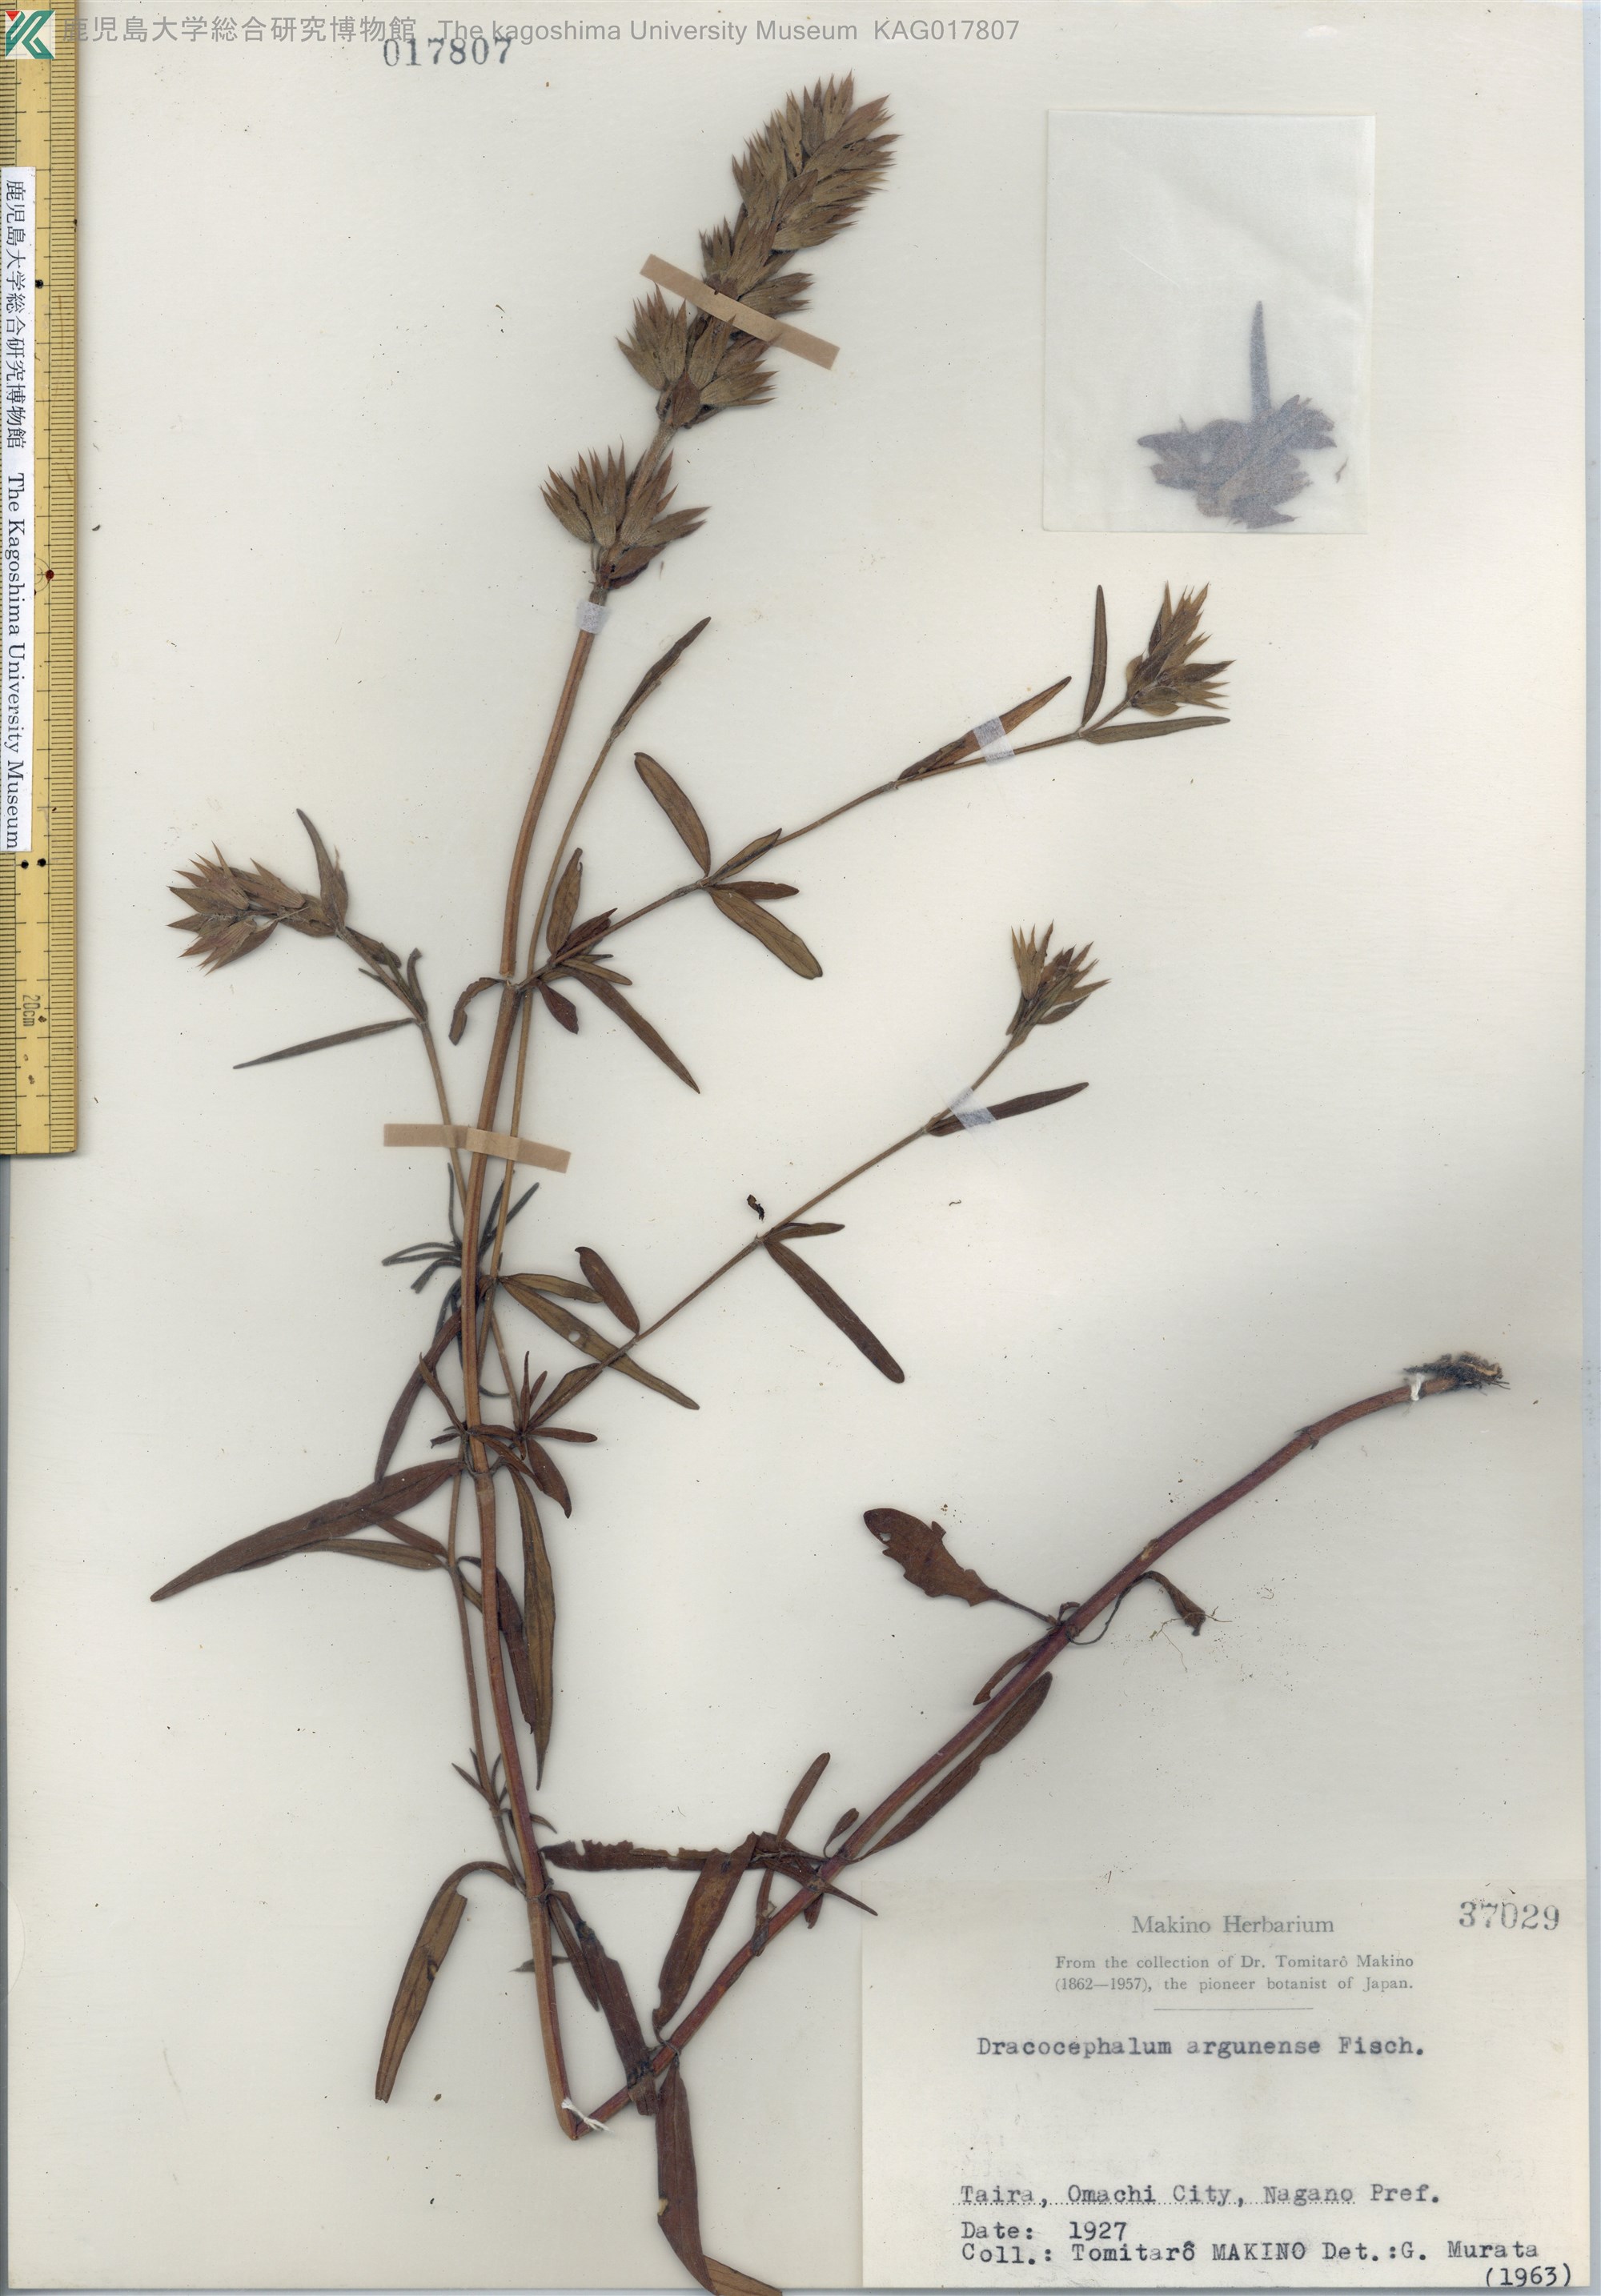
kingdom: Plantae
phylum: Tracheophyta
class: Magnoliopsida
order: Lamiales
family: Lamiaceae
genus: Dracocephalum
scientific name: Dracocephalum argunense
